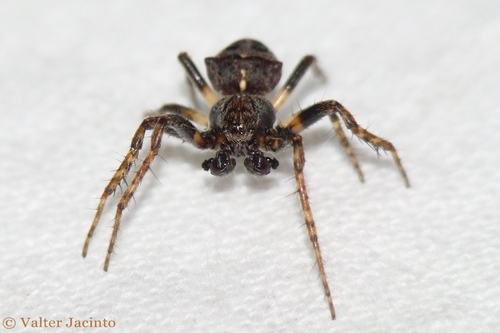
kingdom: Animalia
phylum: Arthropoda
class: Arachnida
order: Araneae
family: Araneidae
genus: Gibbaranea
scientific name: Gibbaranea
